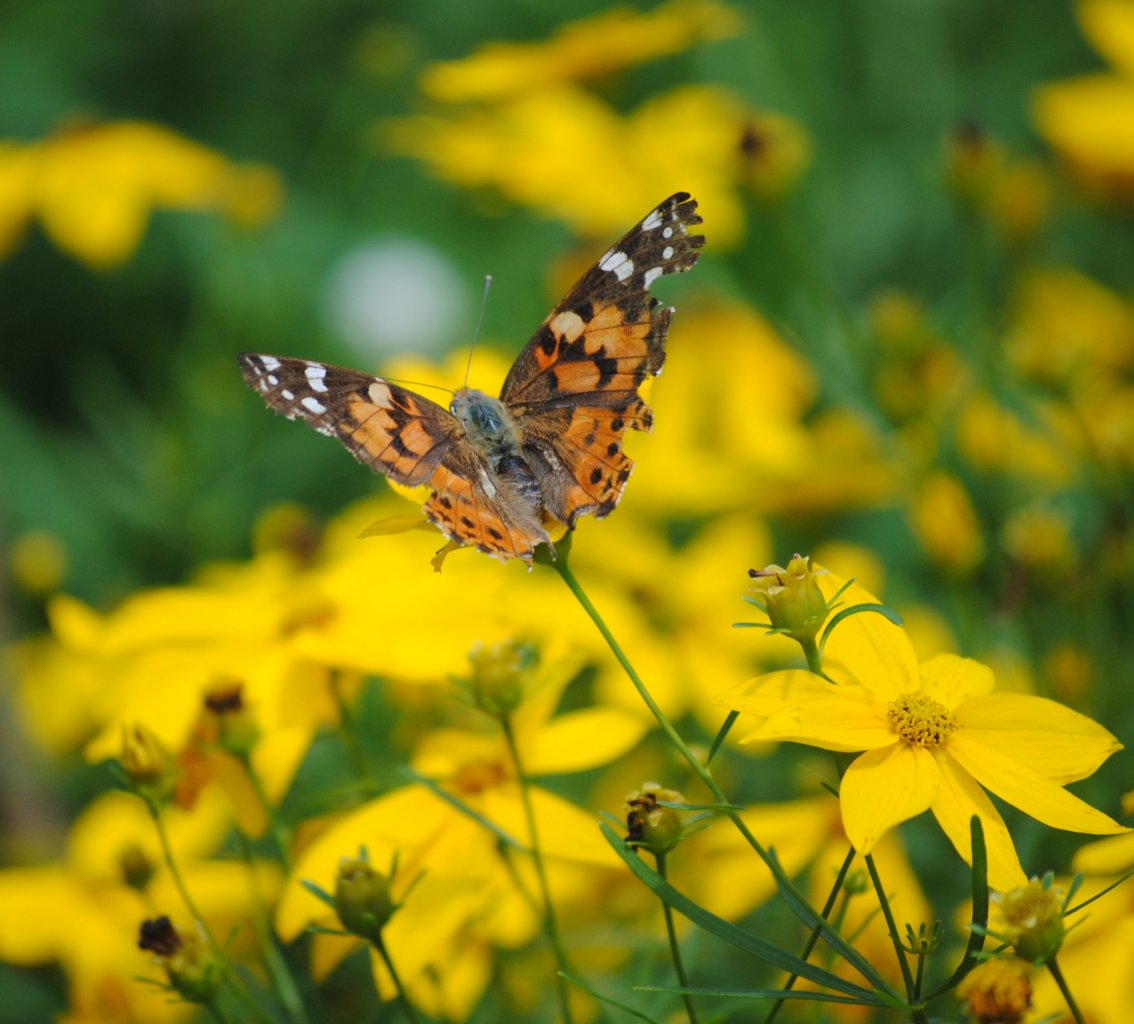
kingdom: Animalia
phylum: Arthropoda
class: Insecta
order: Lepidoptera
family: Nymphalidae
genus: Vanessa
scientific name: Vanessa cardui
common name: Painted Lady
